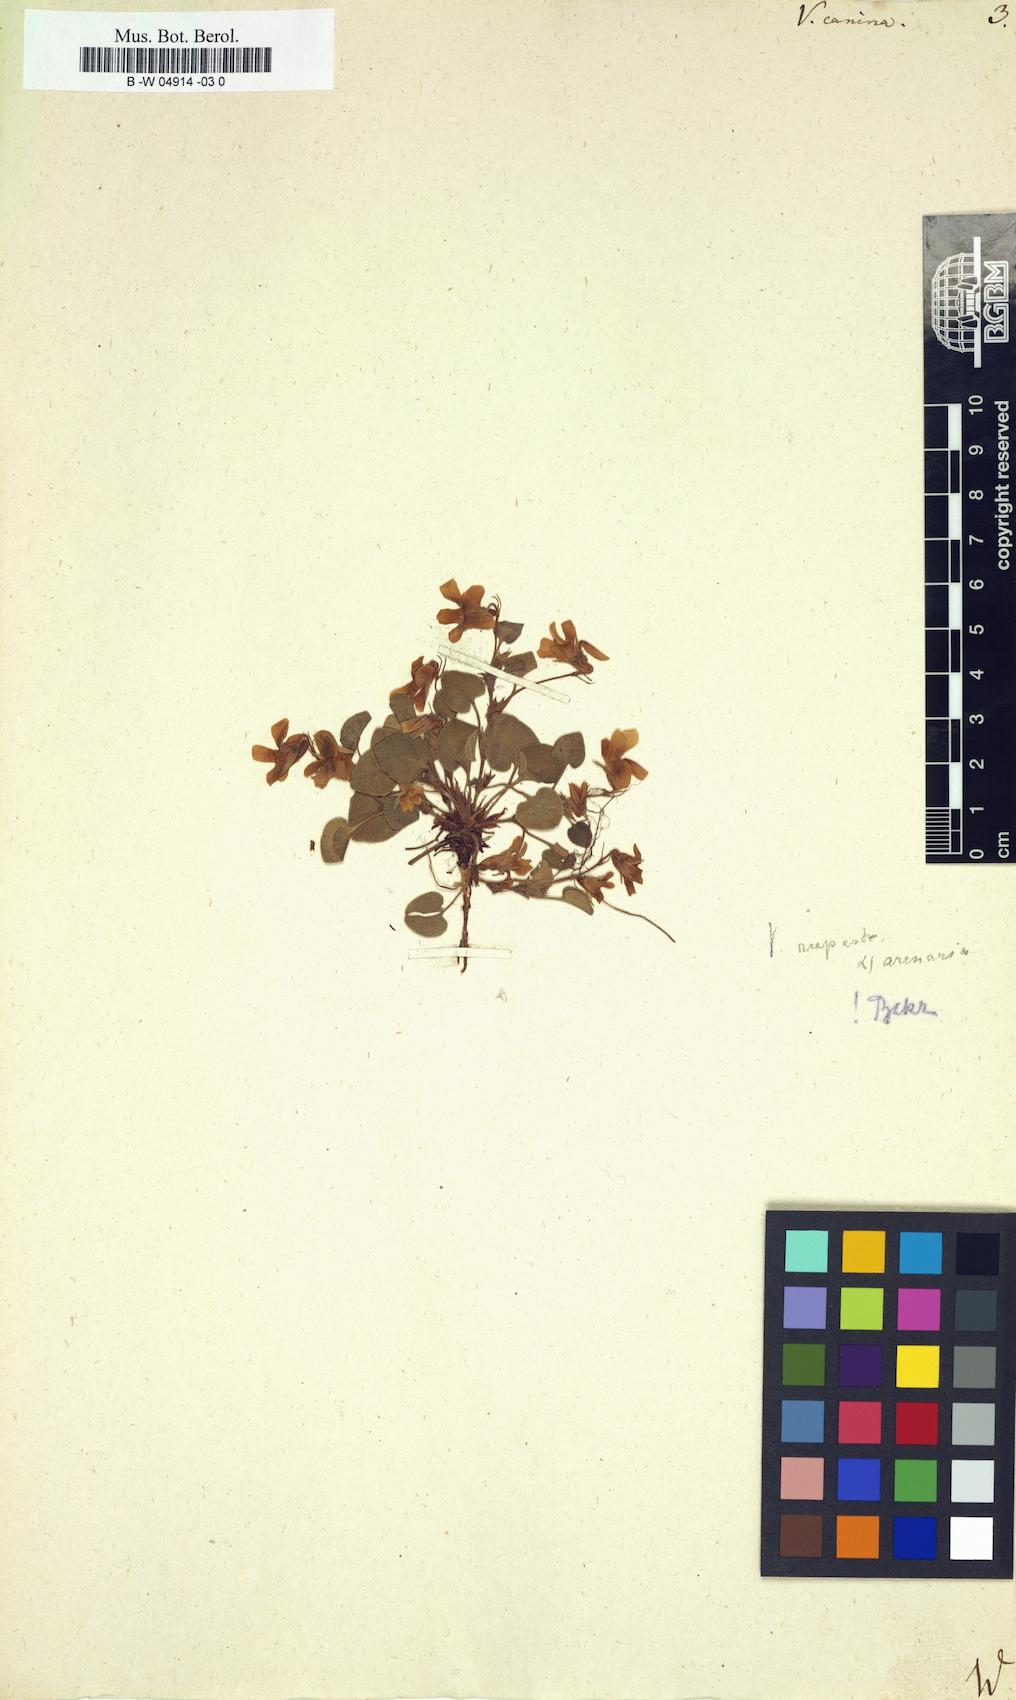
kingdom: Plantae
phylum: Tracheophyta
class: Magnoliopsida
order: Malpighiales
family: Violaceae
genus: Viola
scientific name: Viola canina
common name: Heath dog-violet
